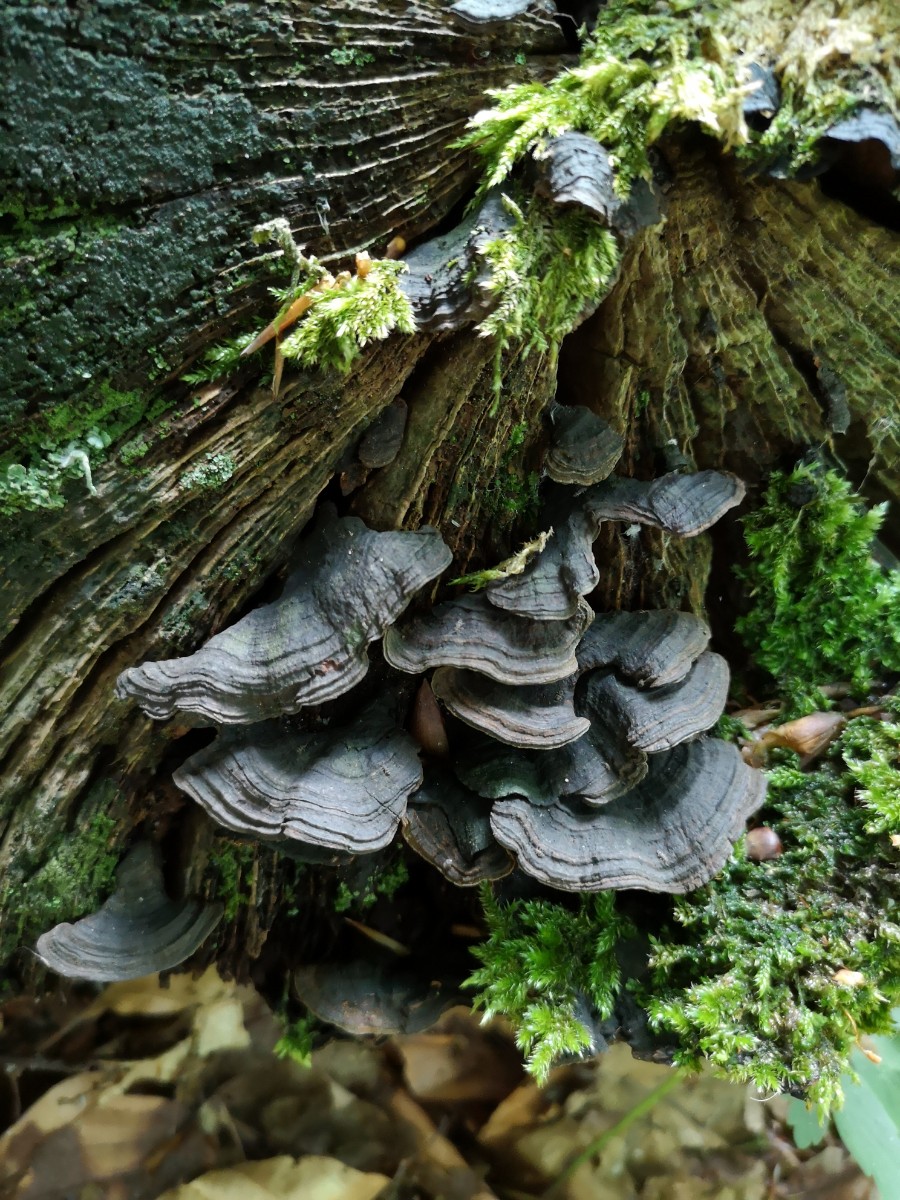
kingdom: Fungi
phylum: Basidiomycota
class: Agaricomycetes
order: Hymenochaetales
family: Hymenochaetaceae
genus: Hymenochaete
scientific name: Hymenochaete rubiginosa
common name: stiv ruslædersvamp
